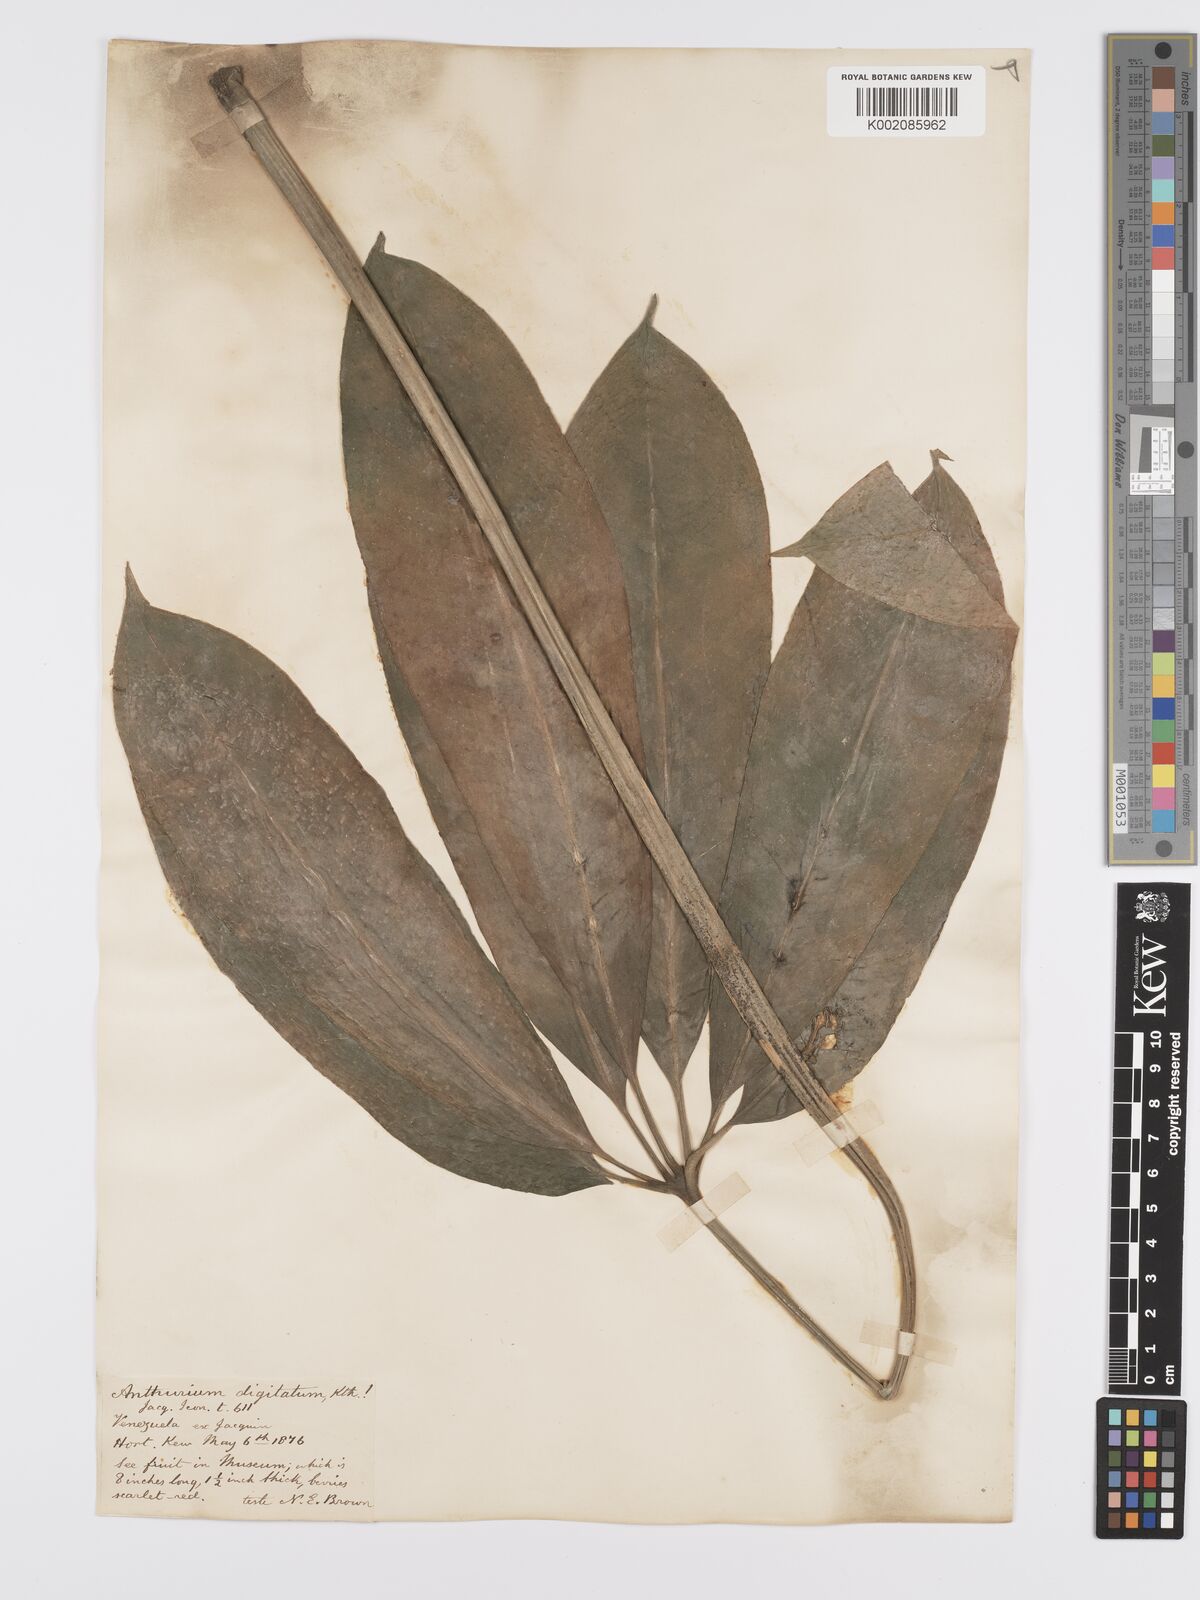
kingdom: Plantae
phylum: Tracheophyta
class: Liliopsida
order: Alismatales
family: Araceae
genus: Anthurium
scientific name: Anthurium digitatum
